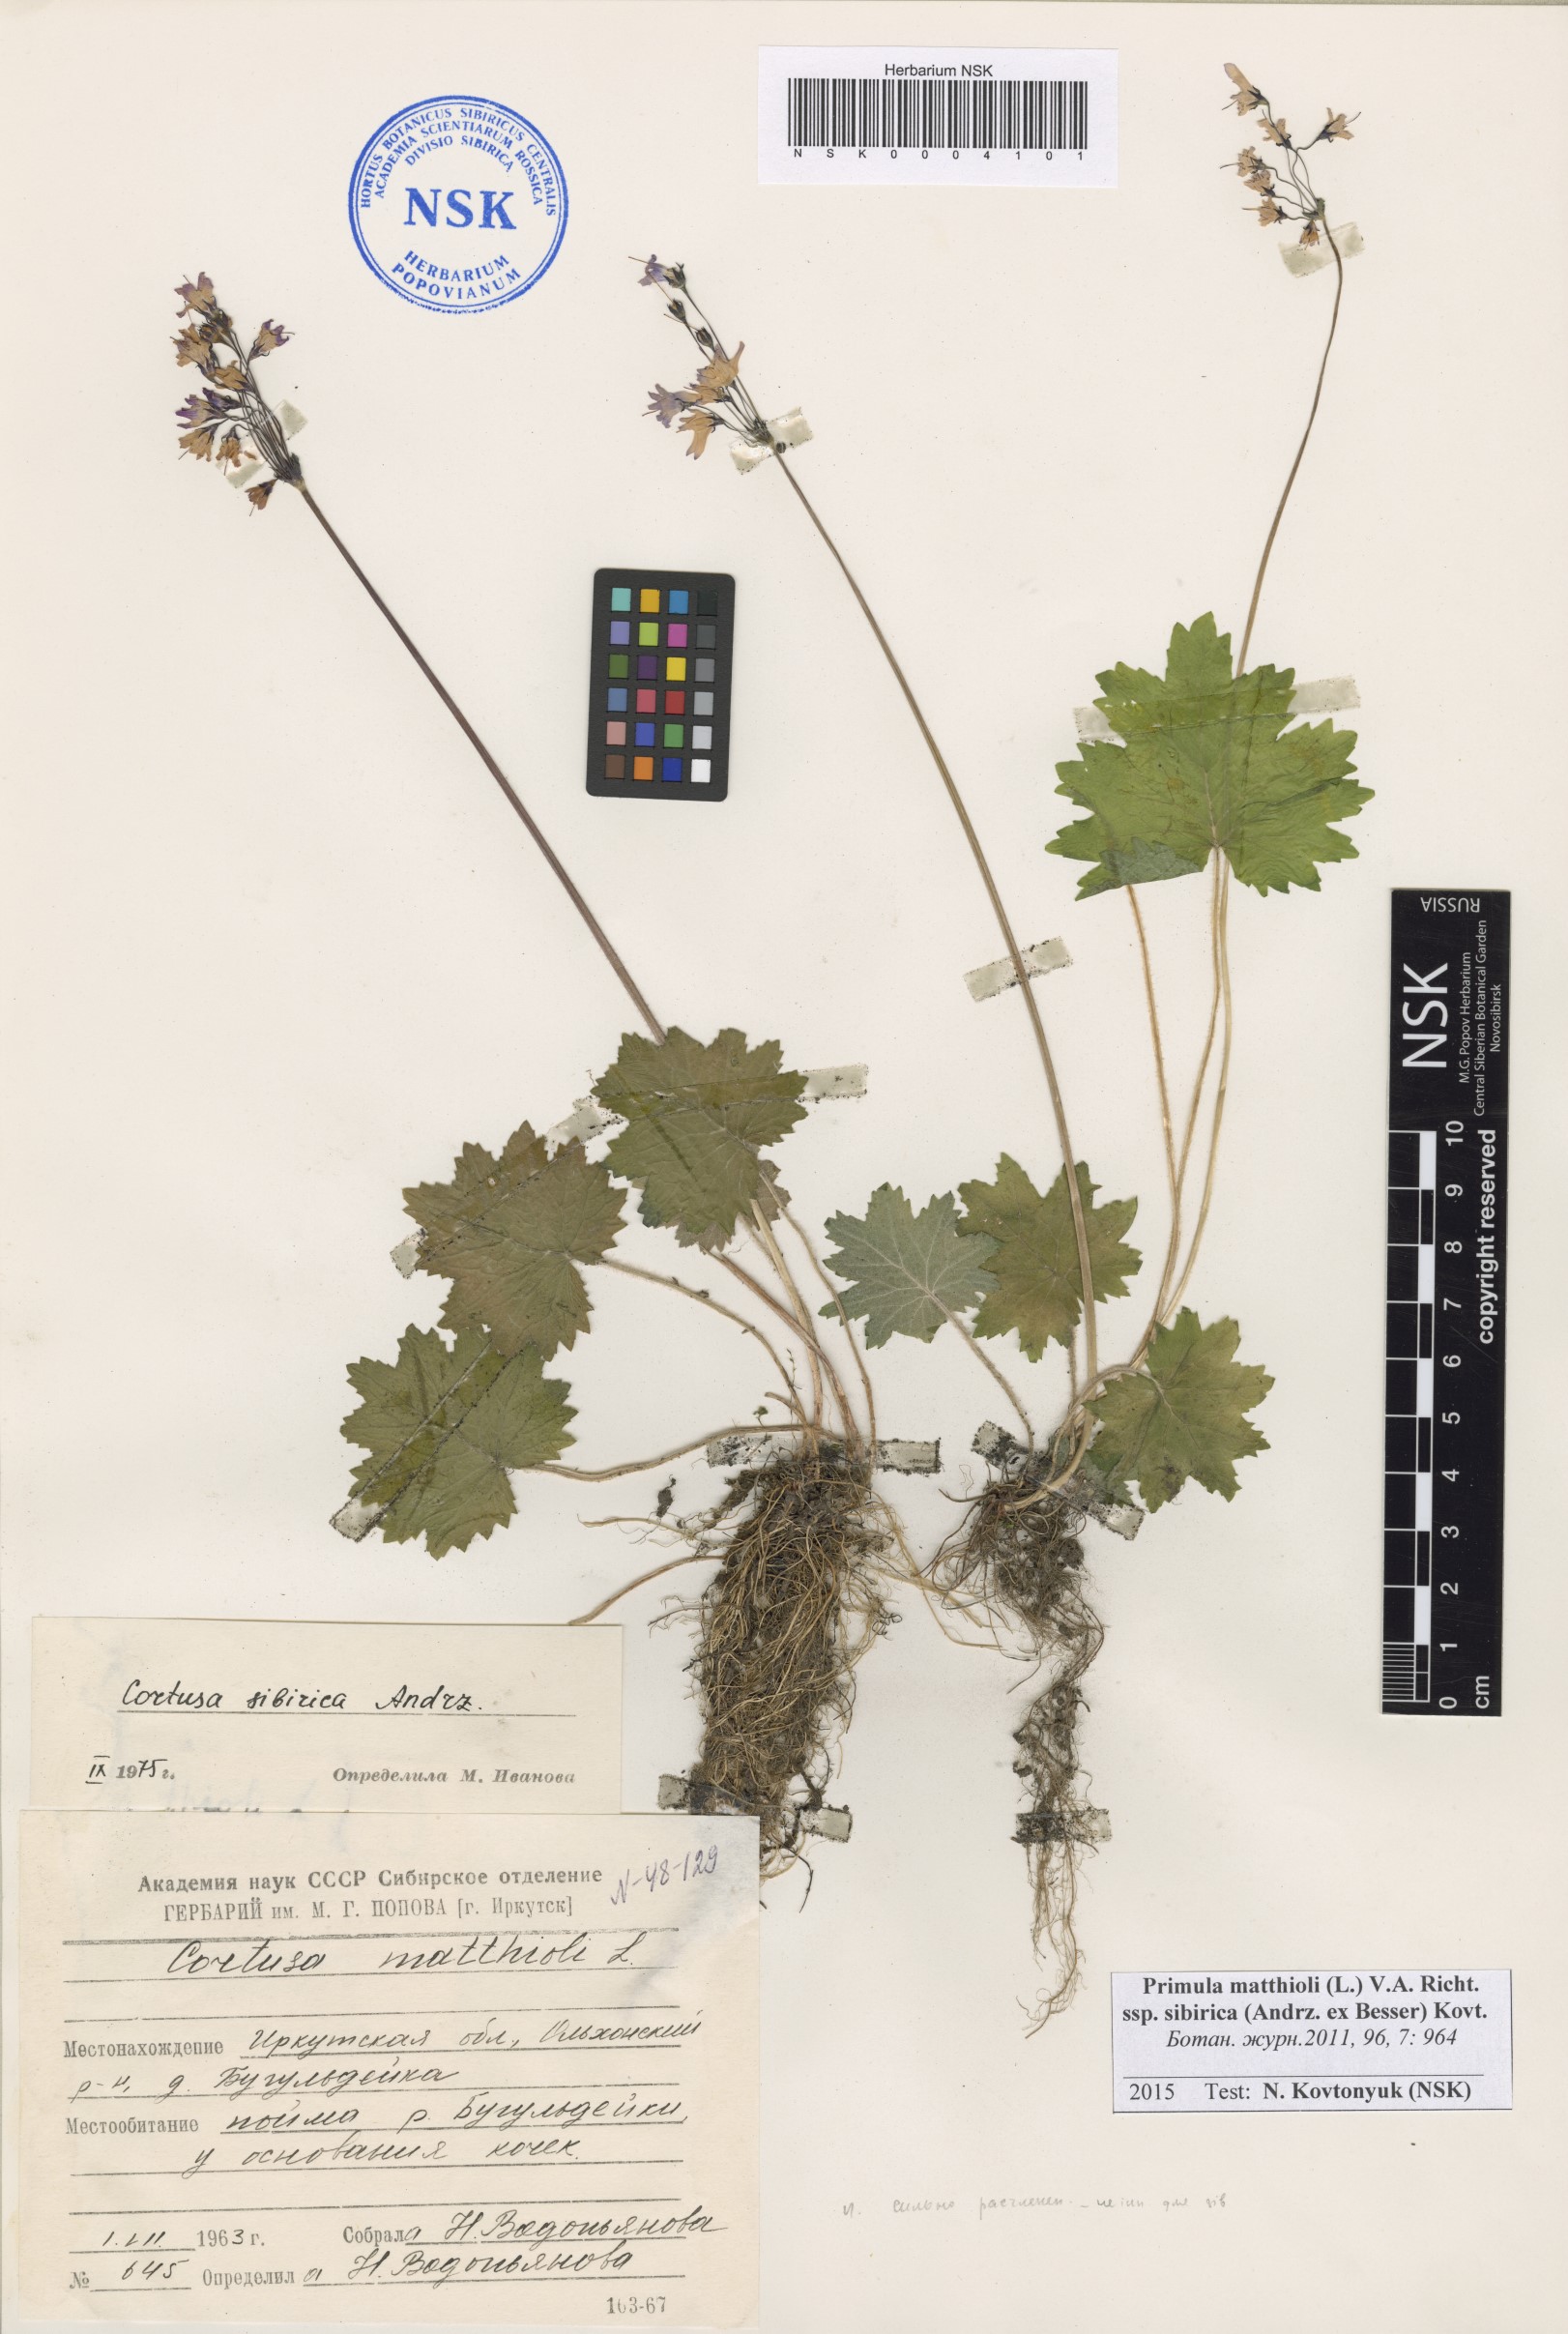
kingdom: Plantae
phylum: Tracheophyta
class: Magnoliopsida
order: Ericales
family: Primulaceae
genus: Primula
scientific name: Primula matthioli
